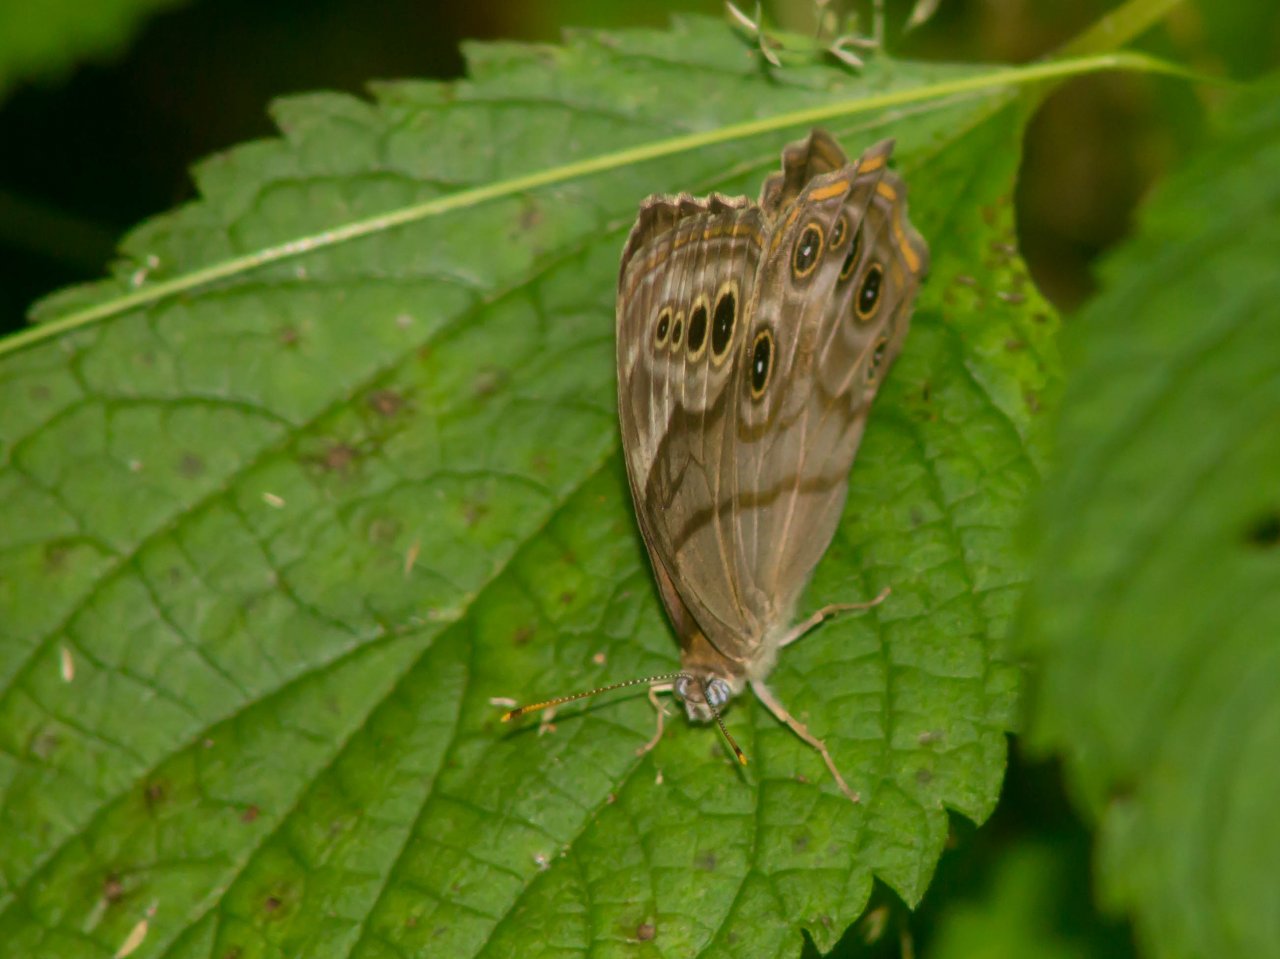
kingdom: Animalia
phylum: Arthropoda
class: Insecta
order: Lepidoptera
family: Nymphalidae
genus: Lethe
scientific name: Lethe anthedon
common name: Northern Pearly-Eye
